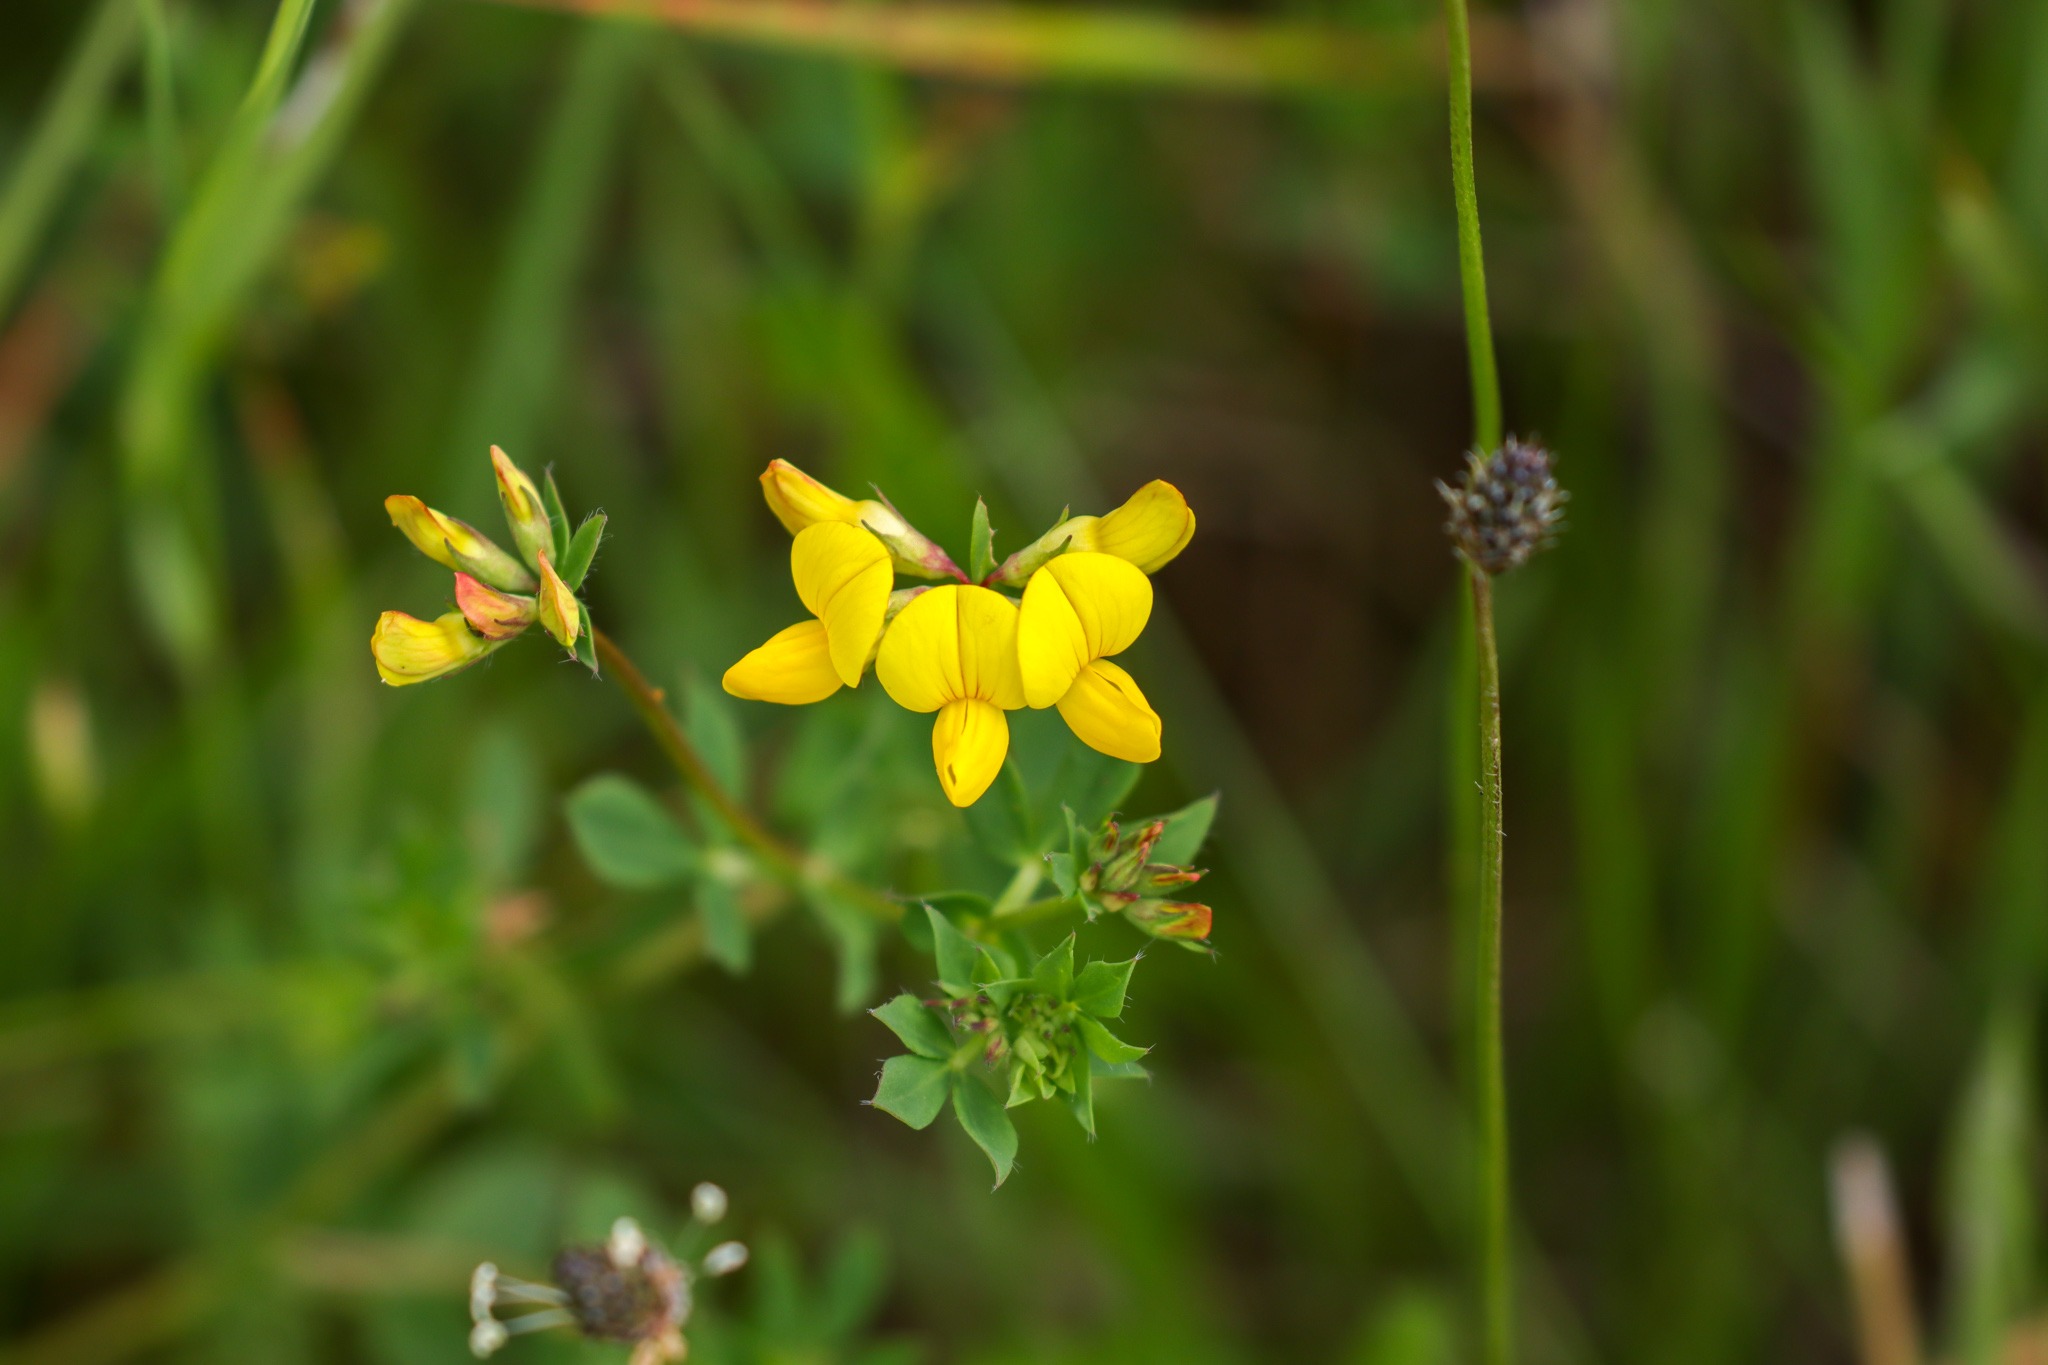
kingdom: Plantae
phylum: Tracheophyta
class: Magnoliopsida
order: Fabales
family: Fabaceae
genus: Lotus
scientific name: Lotus corniculatus
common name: Almindelig kællingetand
